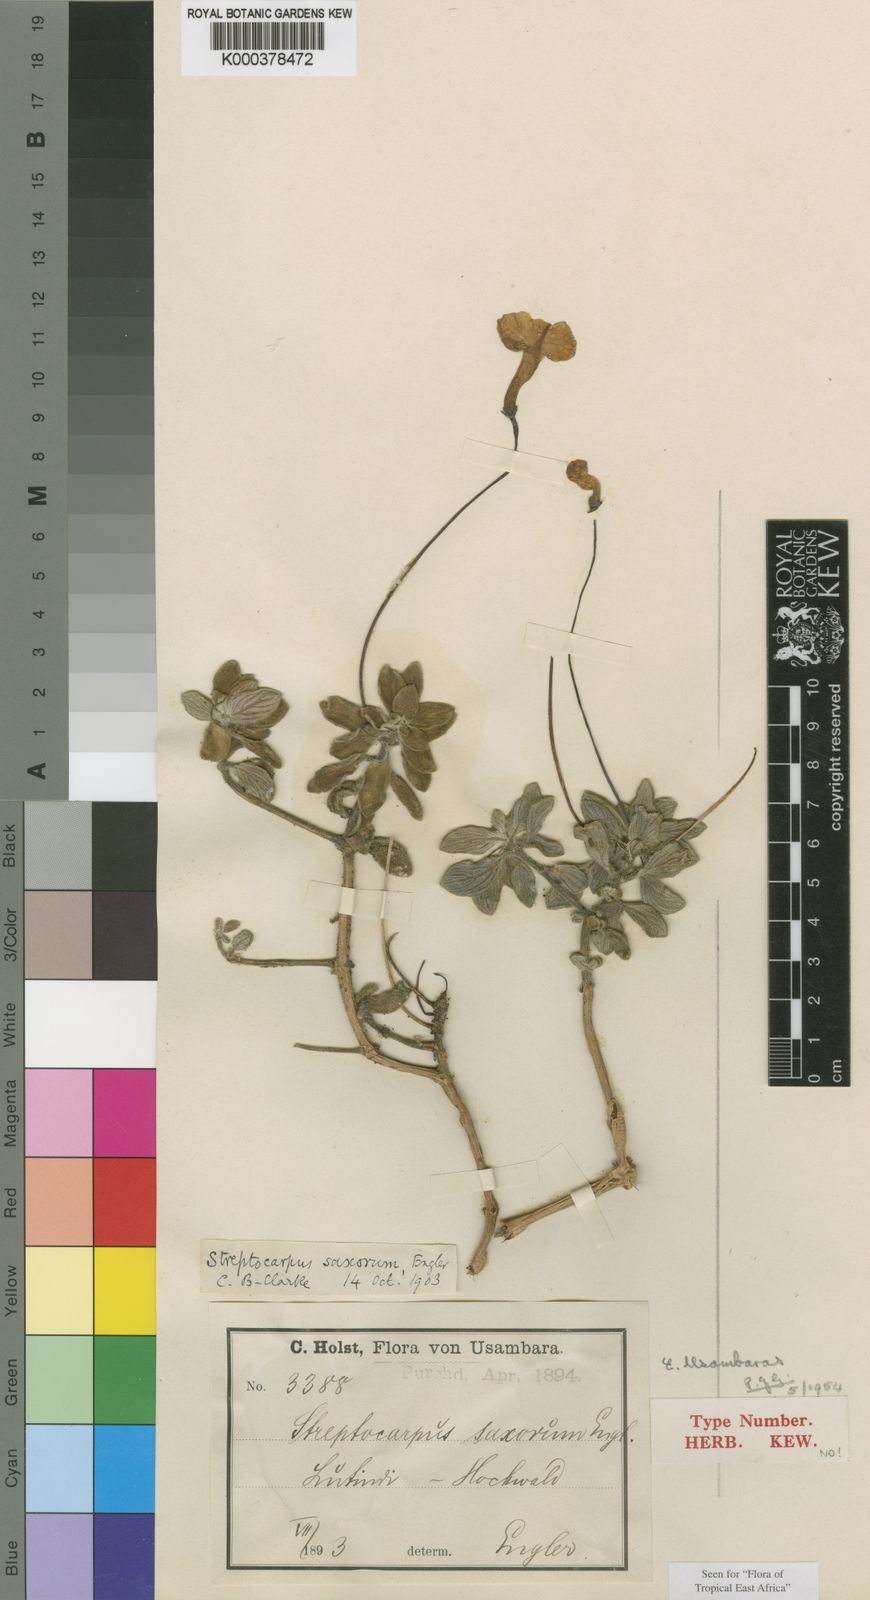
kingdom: Plantae
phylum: Tracheophyta
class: Magnoliopsida
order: Lamiales
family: Gesneriaceae
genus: Streptocarpus
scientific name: Streptocarpus saxorum
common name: False african-violet
